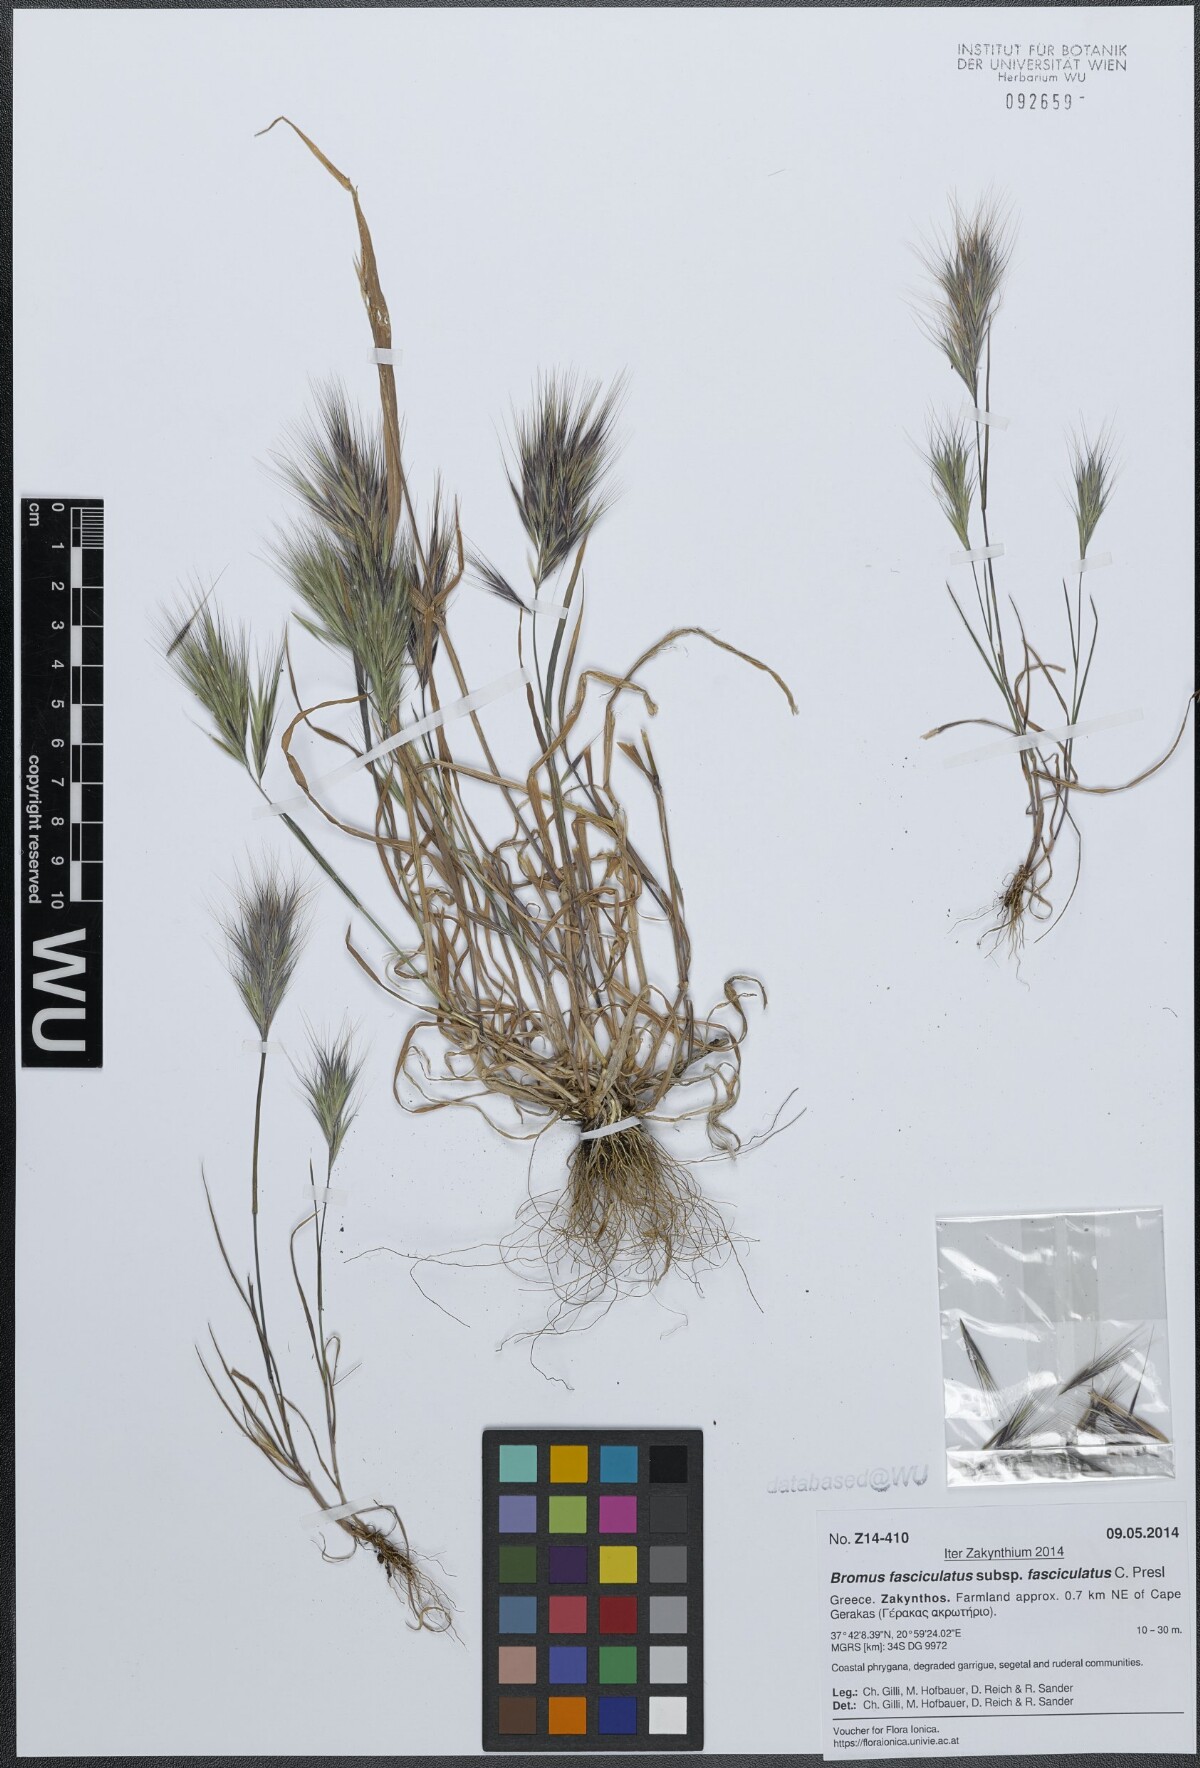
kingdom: Plantae
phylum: Tracheophyta
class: Liliopsida
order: Poales
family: Poaceae
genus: Bromus
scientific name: Bromus fasciculatus
